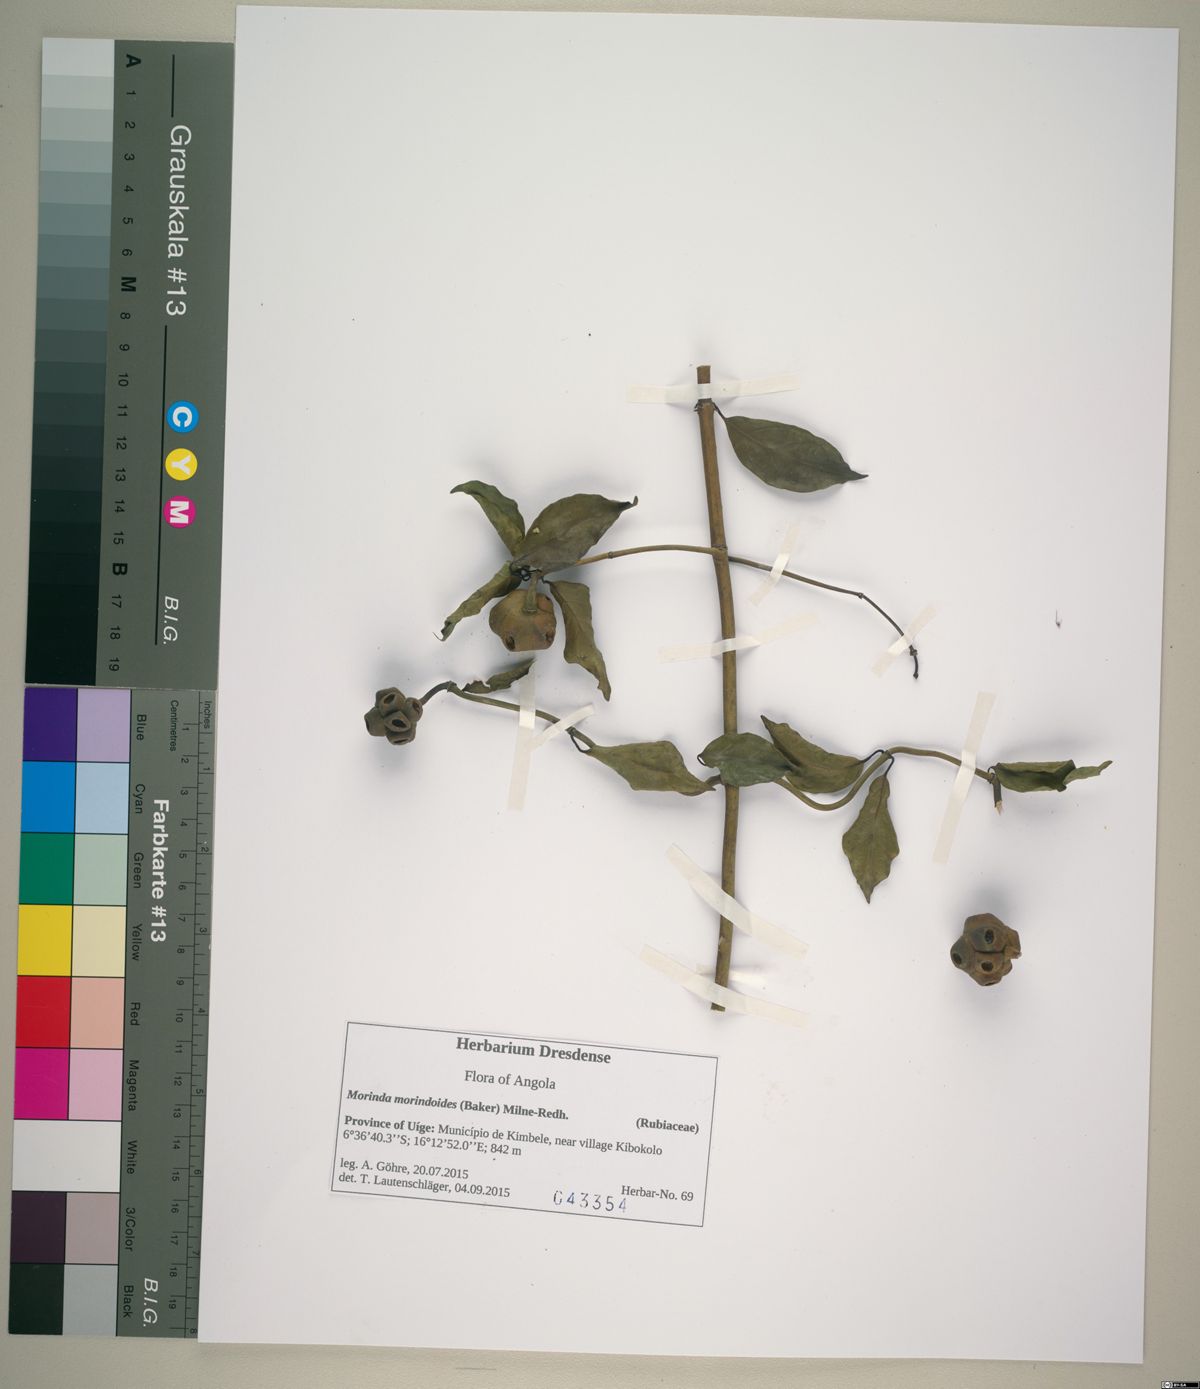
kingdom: Plantae
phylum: Tracheophyta
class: Magnoliopsida
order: Gentianales
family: Rubiaceae
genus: Morinda
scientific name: Morinda morindoides
